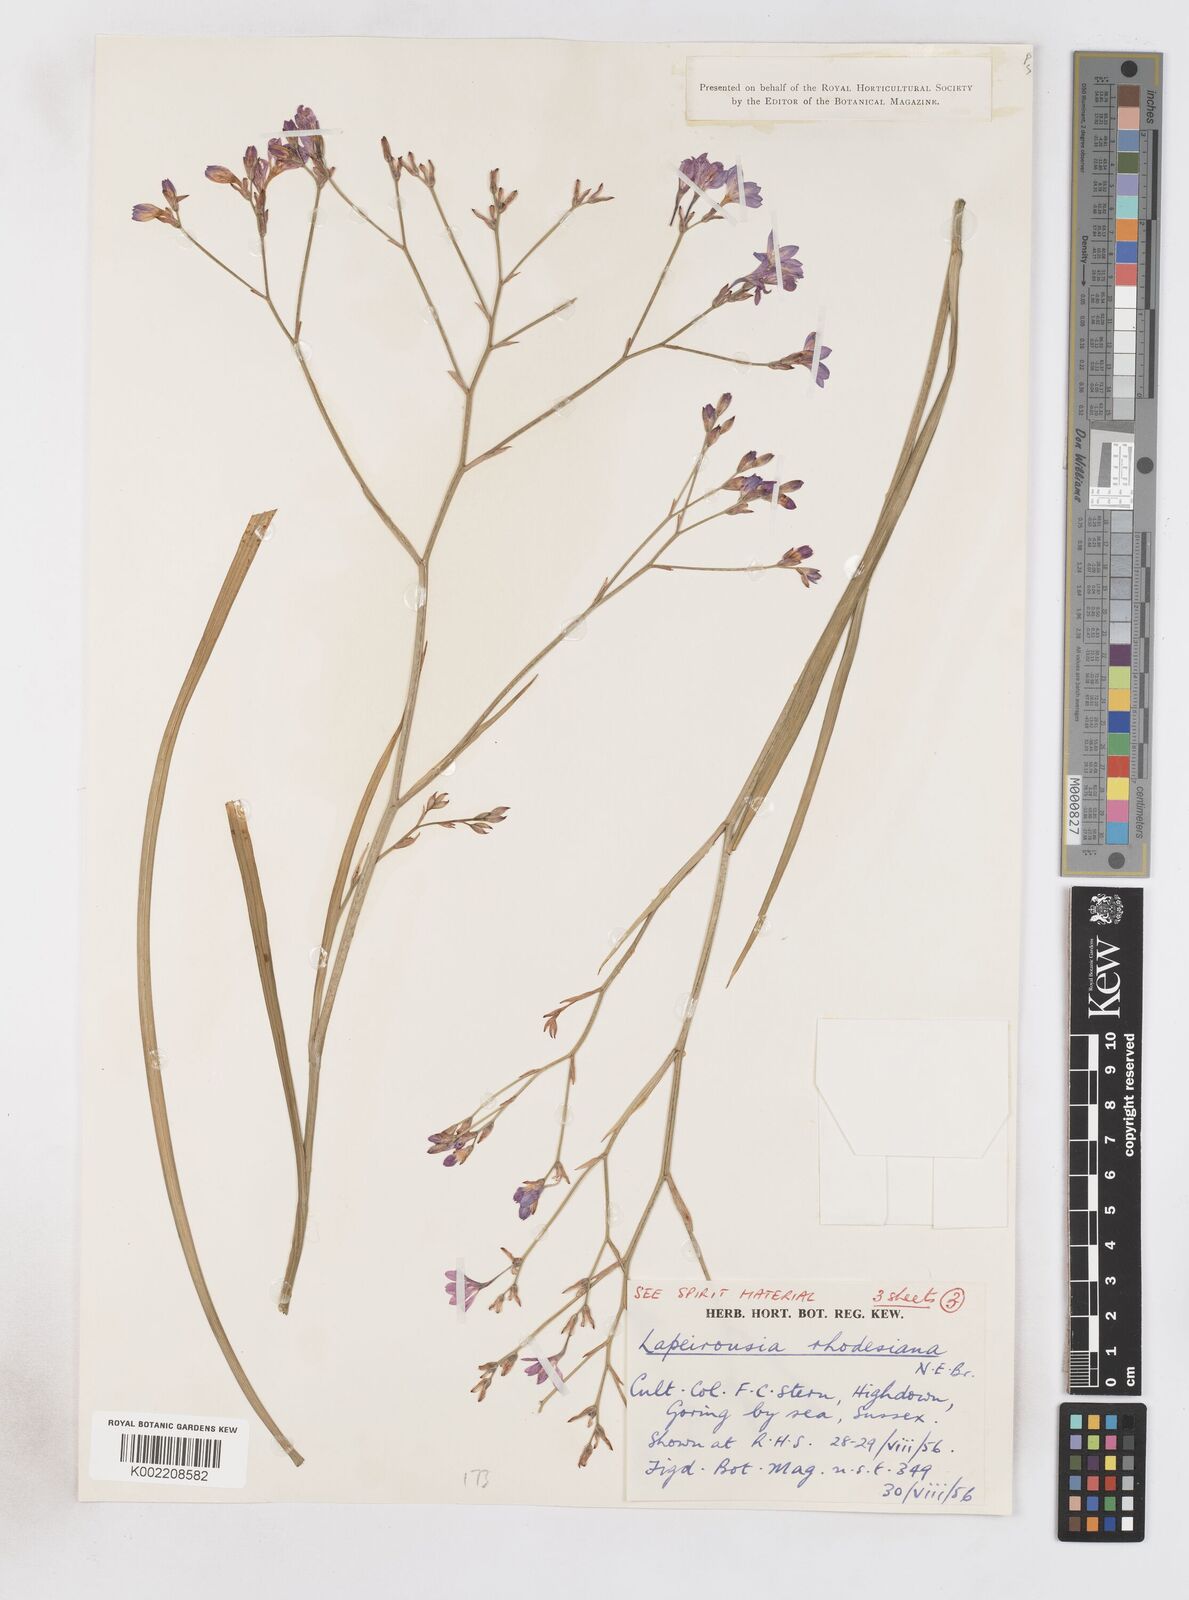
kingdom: Plantae
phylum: Tracheophyta
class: Liliopsida
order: Asparagales
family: Iridaceae
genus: Lapeirousia
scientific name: Lapeirousia
